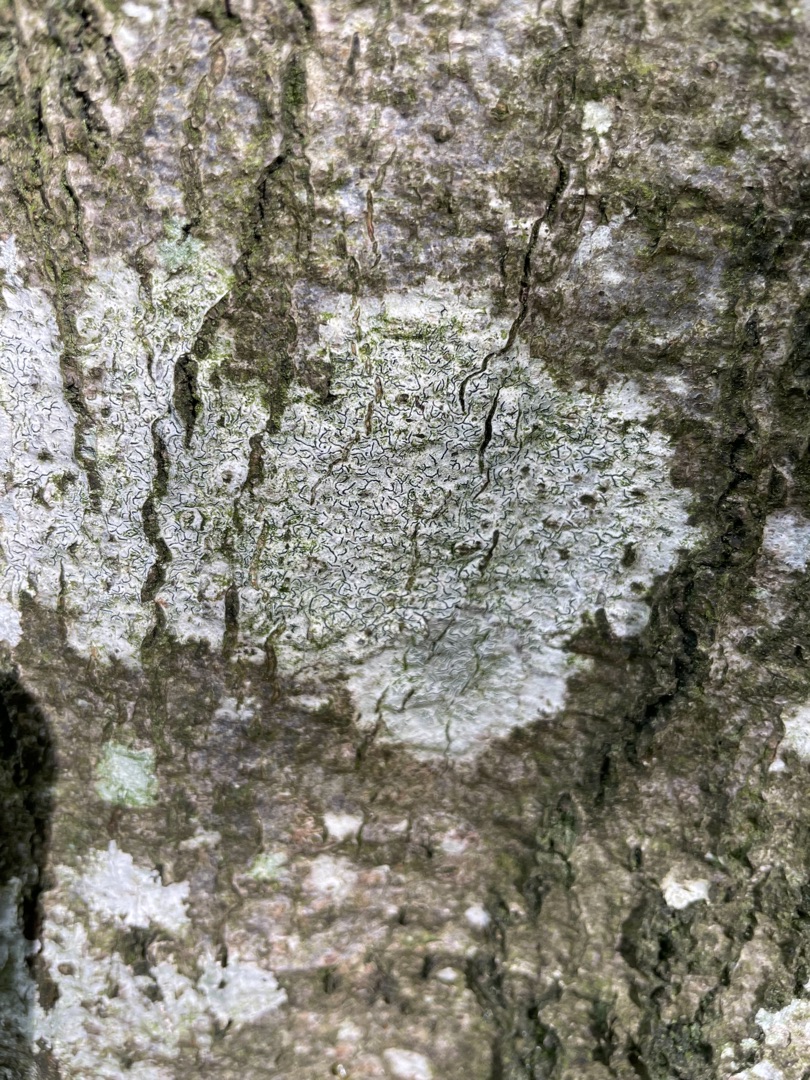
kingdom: Fungi
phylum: Ascomycota
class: Lecanoromycetes
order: Ostropales
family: Graphidaceae
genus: Graphis
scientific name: Graphis scripta
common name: Almindelig skriftlav
